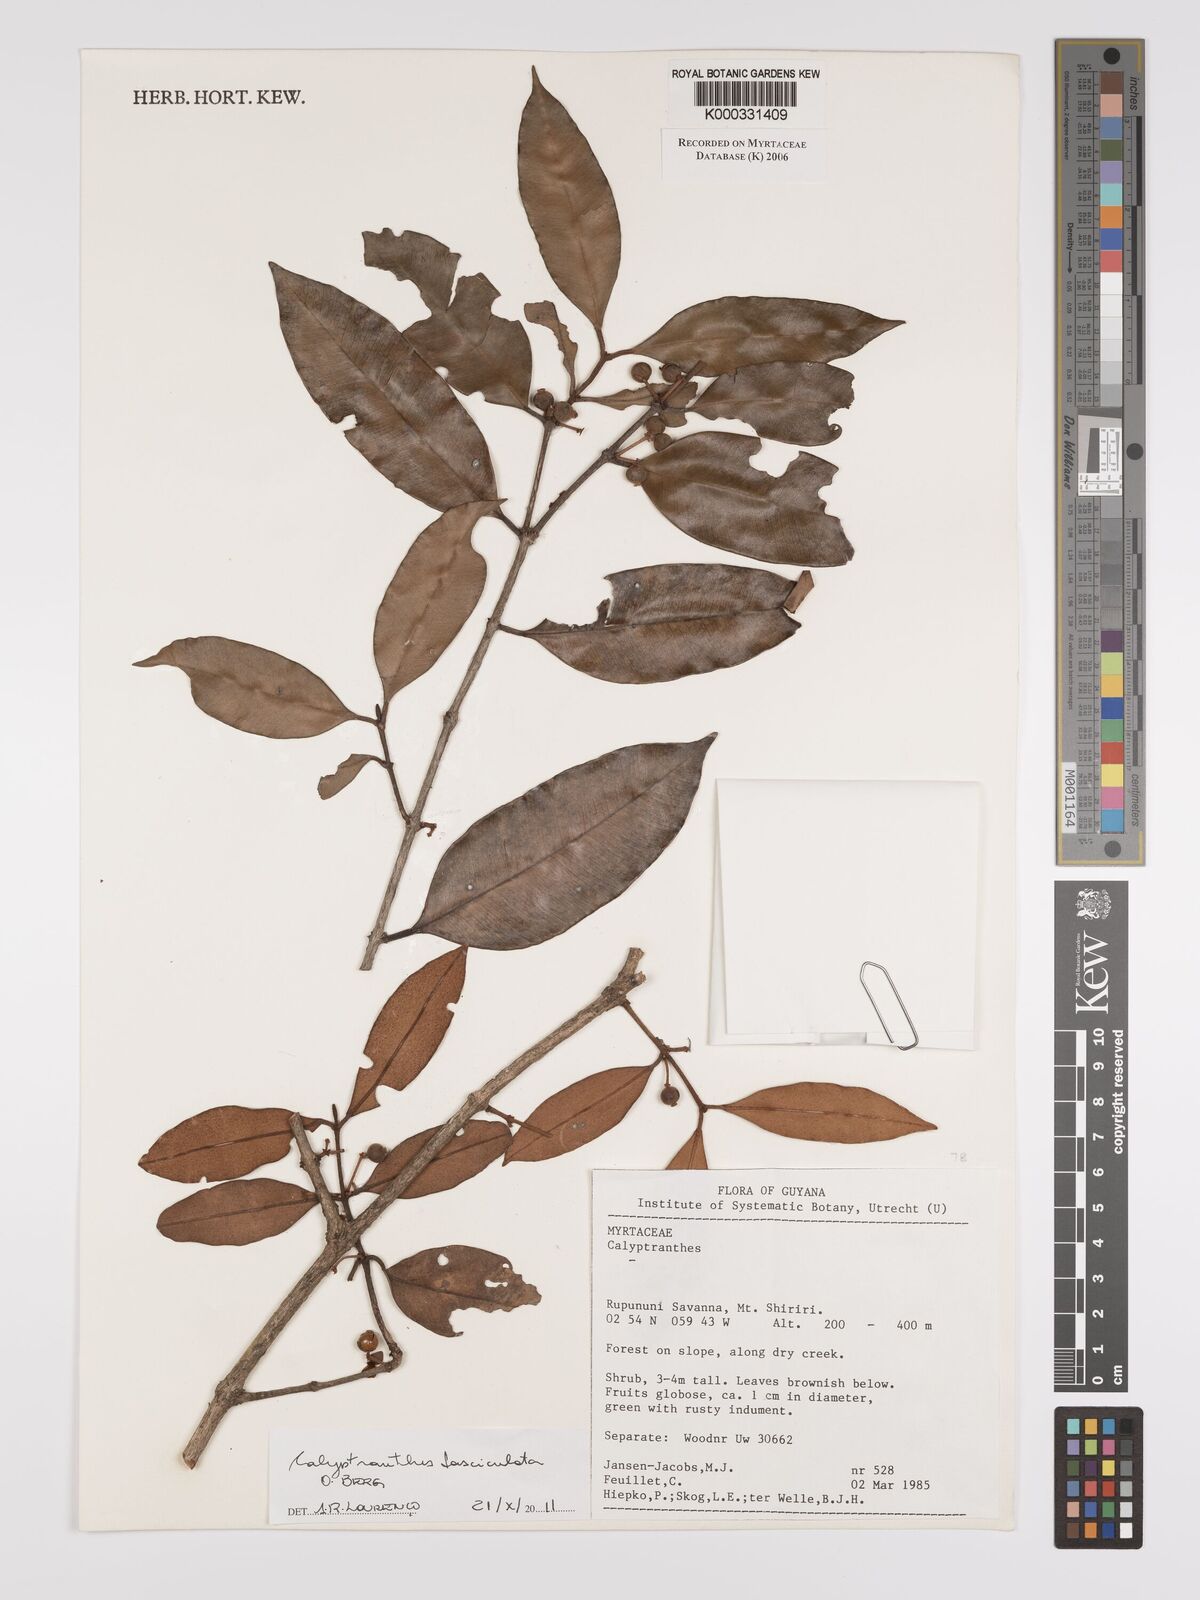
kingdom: Plantae
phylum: Tracheophyta
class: Magnoliopsida
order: Myrtales
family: Myrtaceae
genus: Calyptranthes
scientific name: Calyptranthes
